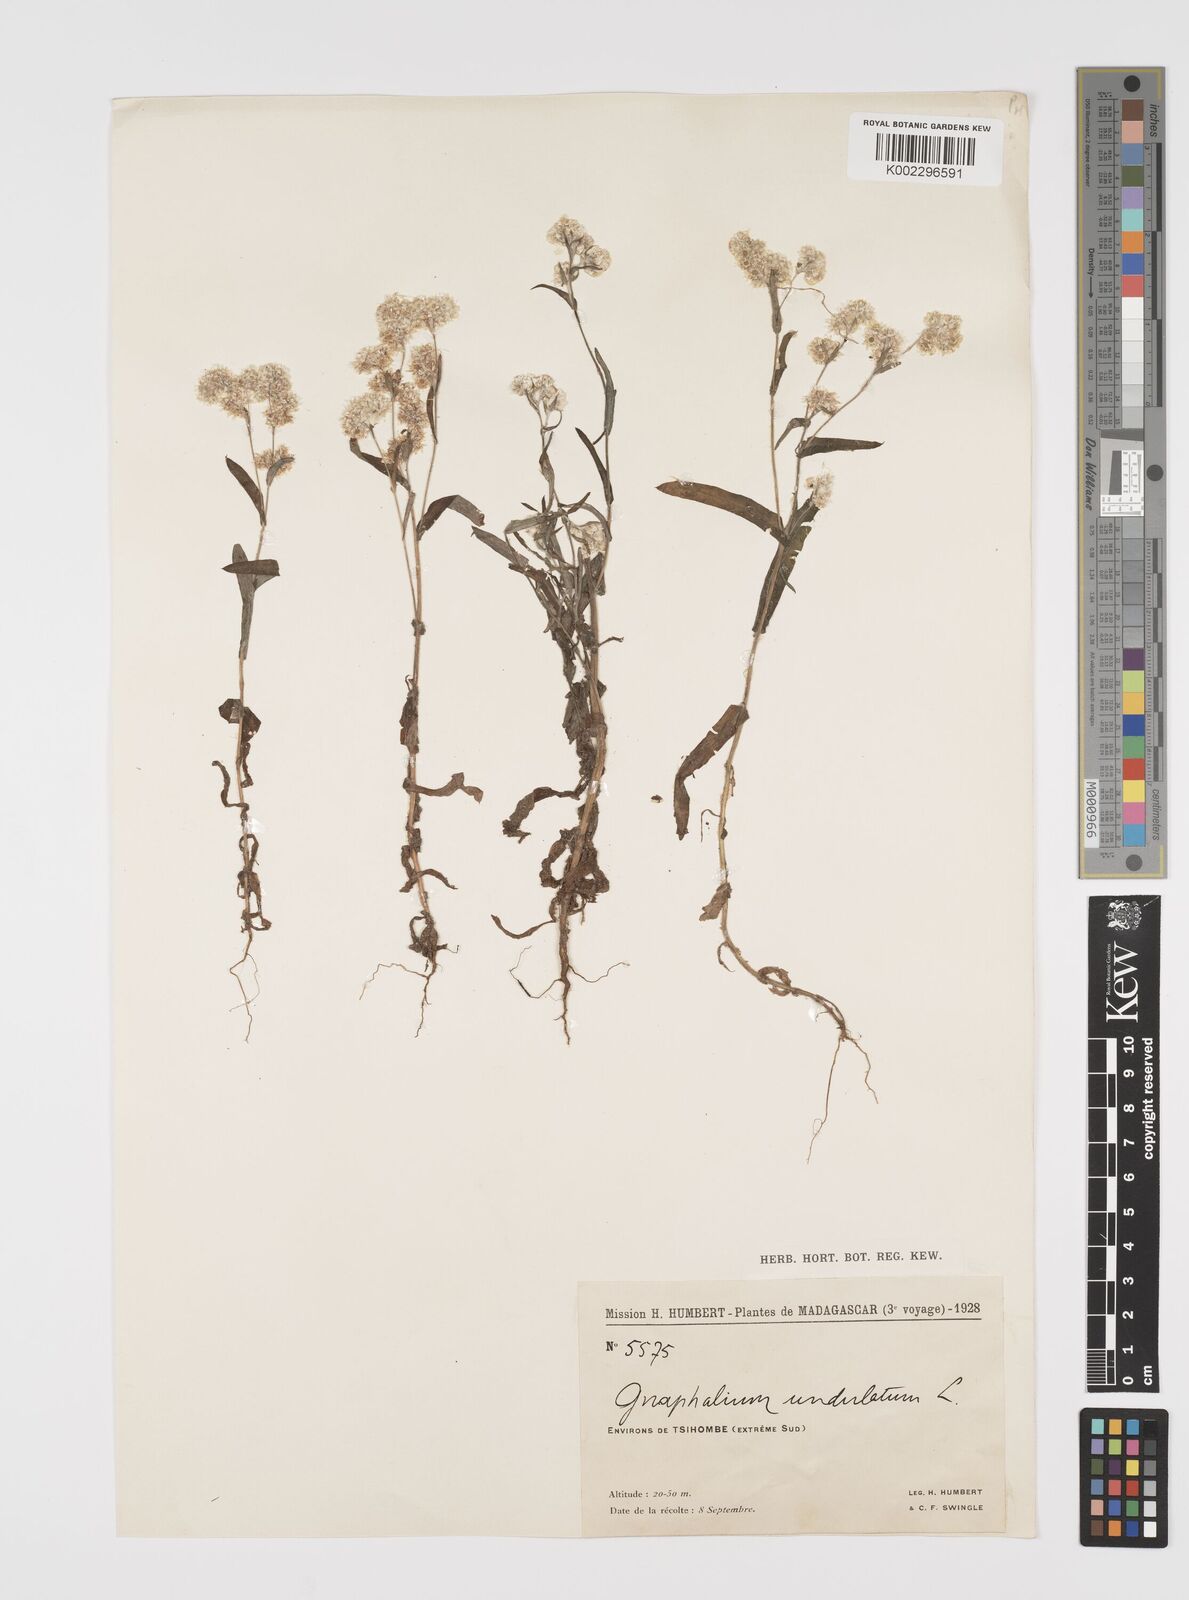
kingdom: Plantae
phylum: Tracheophyta
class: Magnoliopsida
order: Asterales
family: Asteraceae
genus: Pseudognaphalium
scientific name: Pseudognaphalium oligandrum
